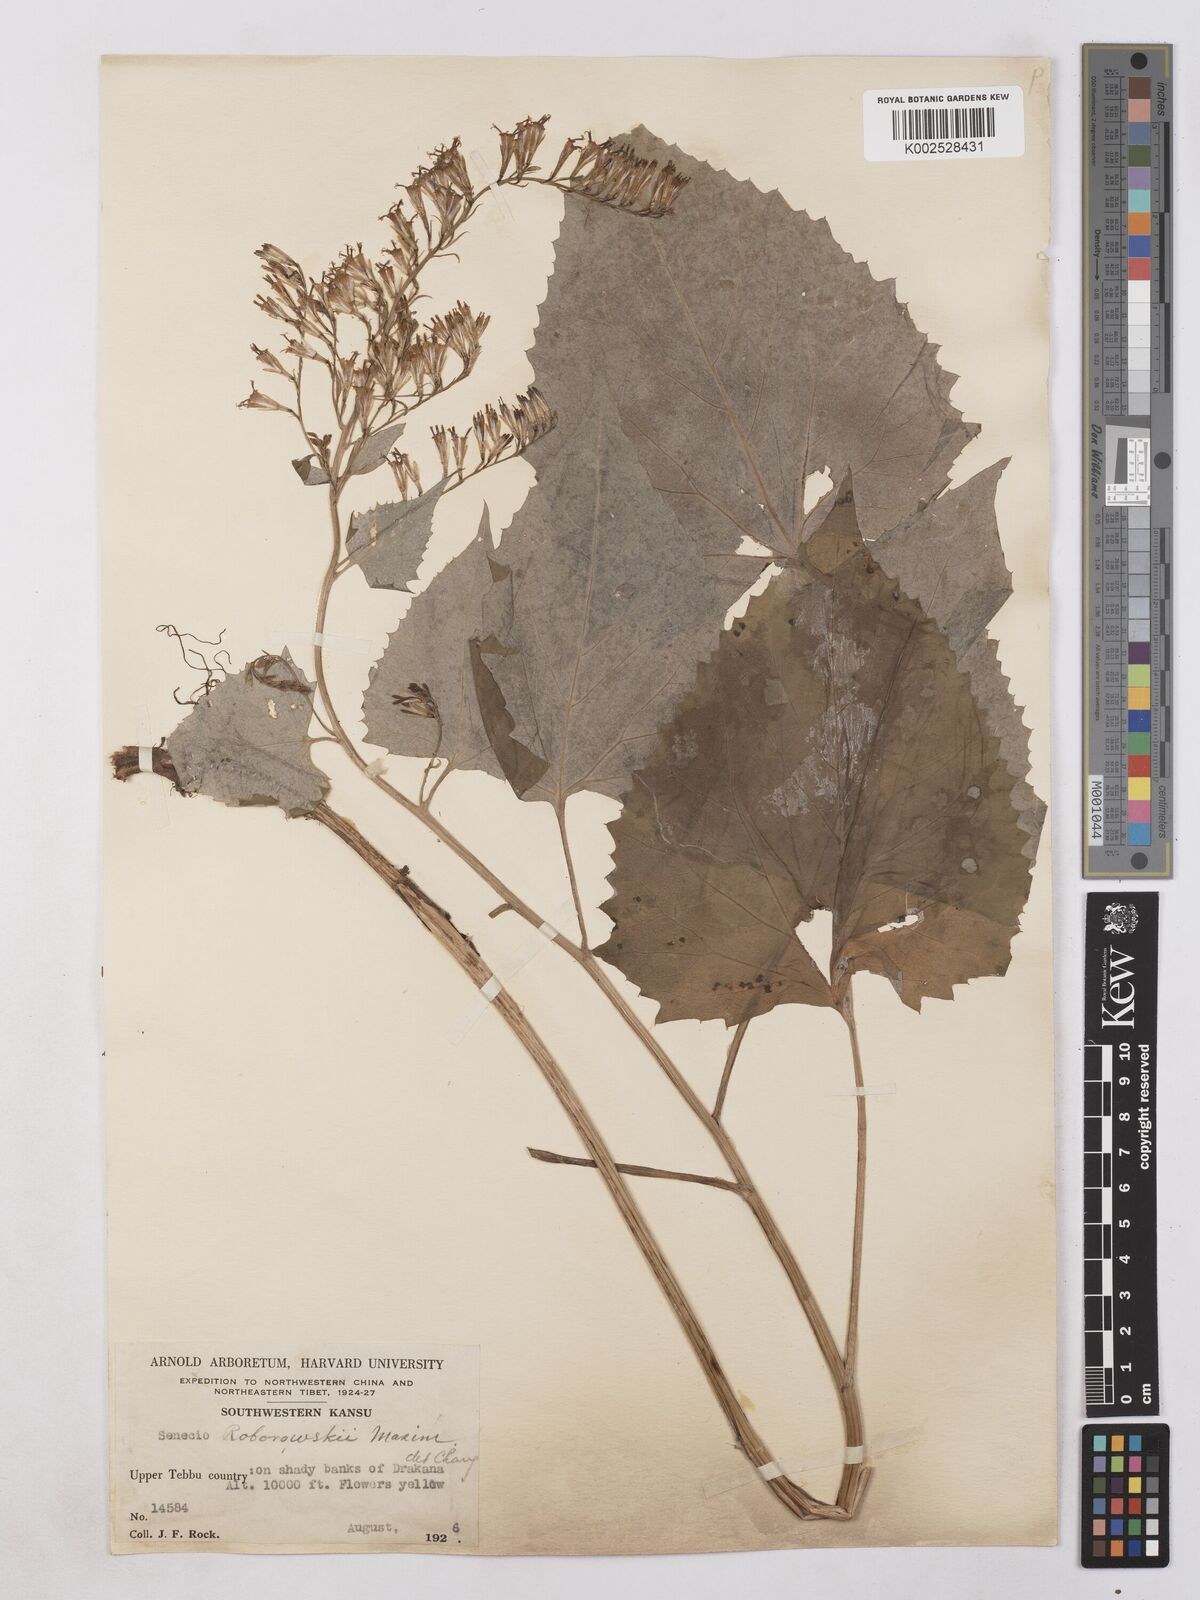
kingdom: Plantae
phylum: Tracheophyta
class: Magnoliopsida
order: Asterales
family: Asteraceae
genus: Parasenecio
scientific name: Parasenecio roborowskii
